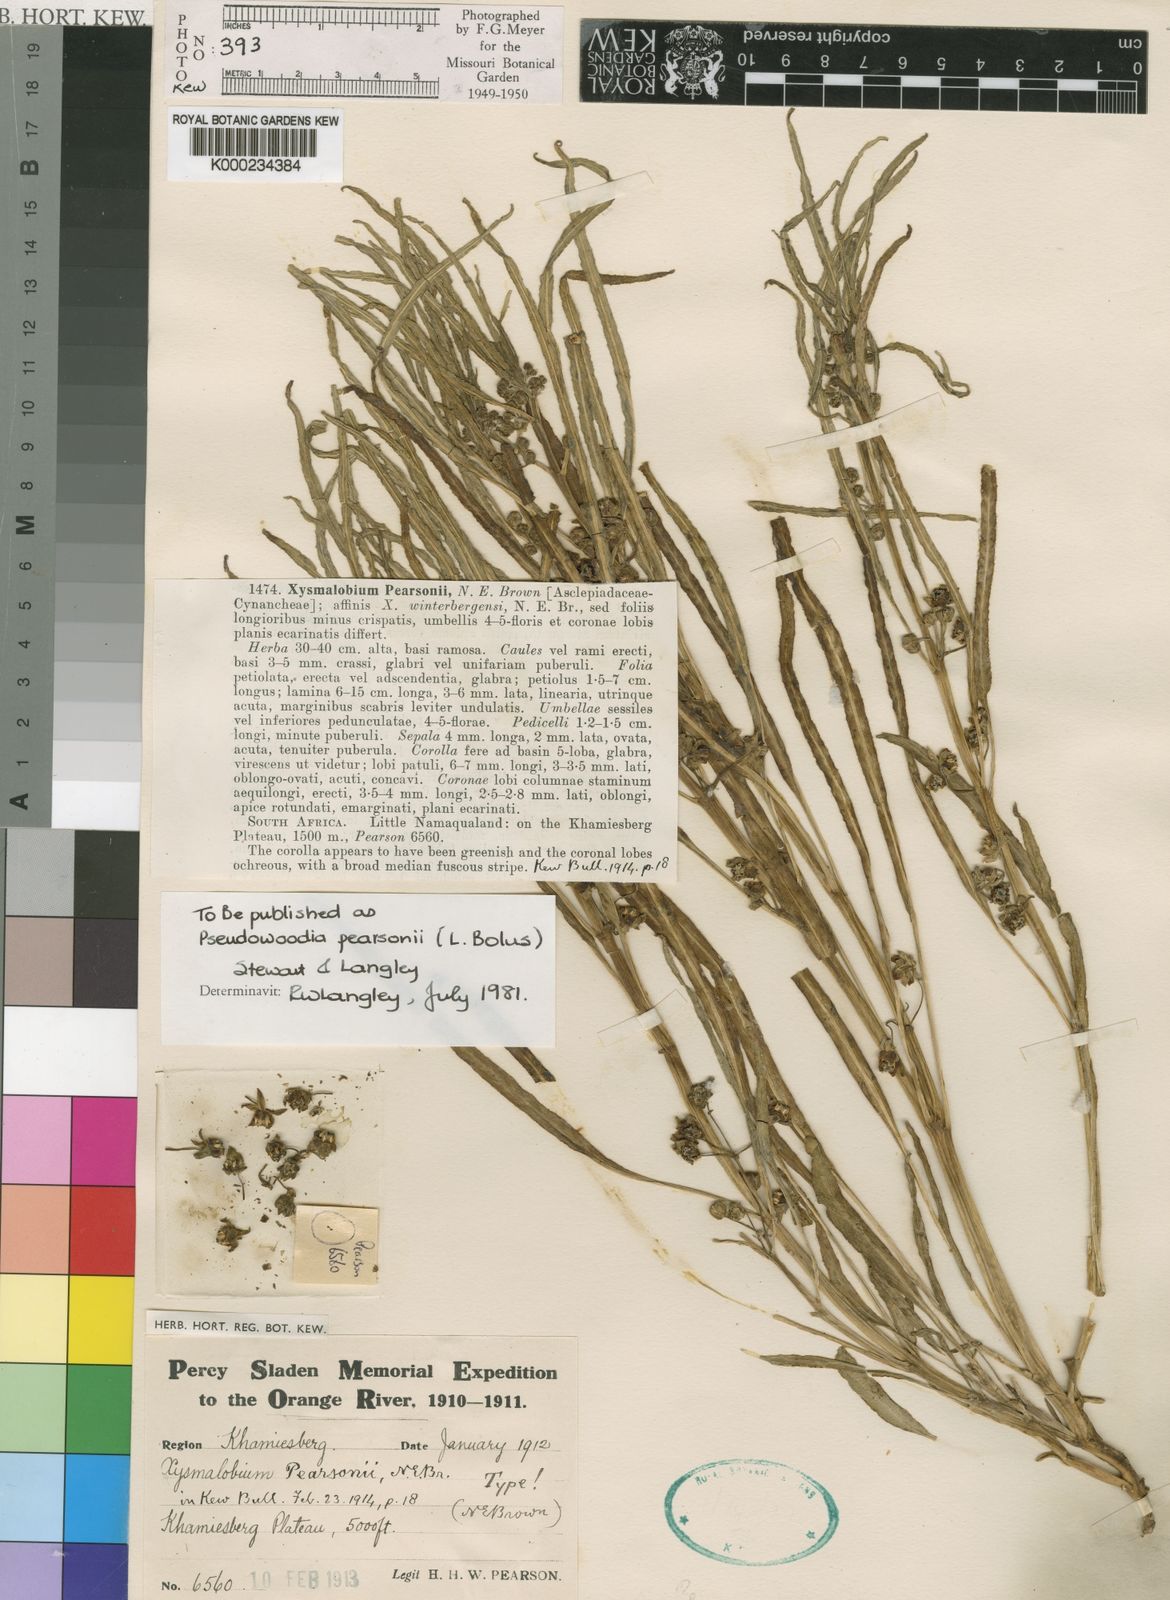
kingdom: Plantae
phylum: Tracheophyta
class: Magnoliopsida
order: Gentianales
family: Asclepiadaceae
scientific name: Asclepiadaceae
